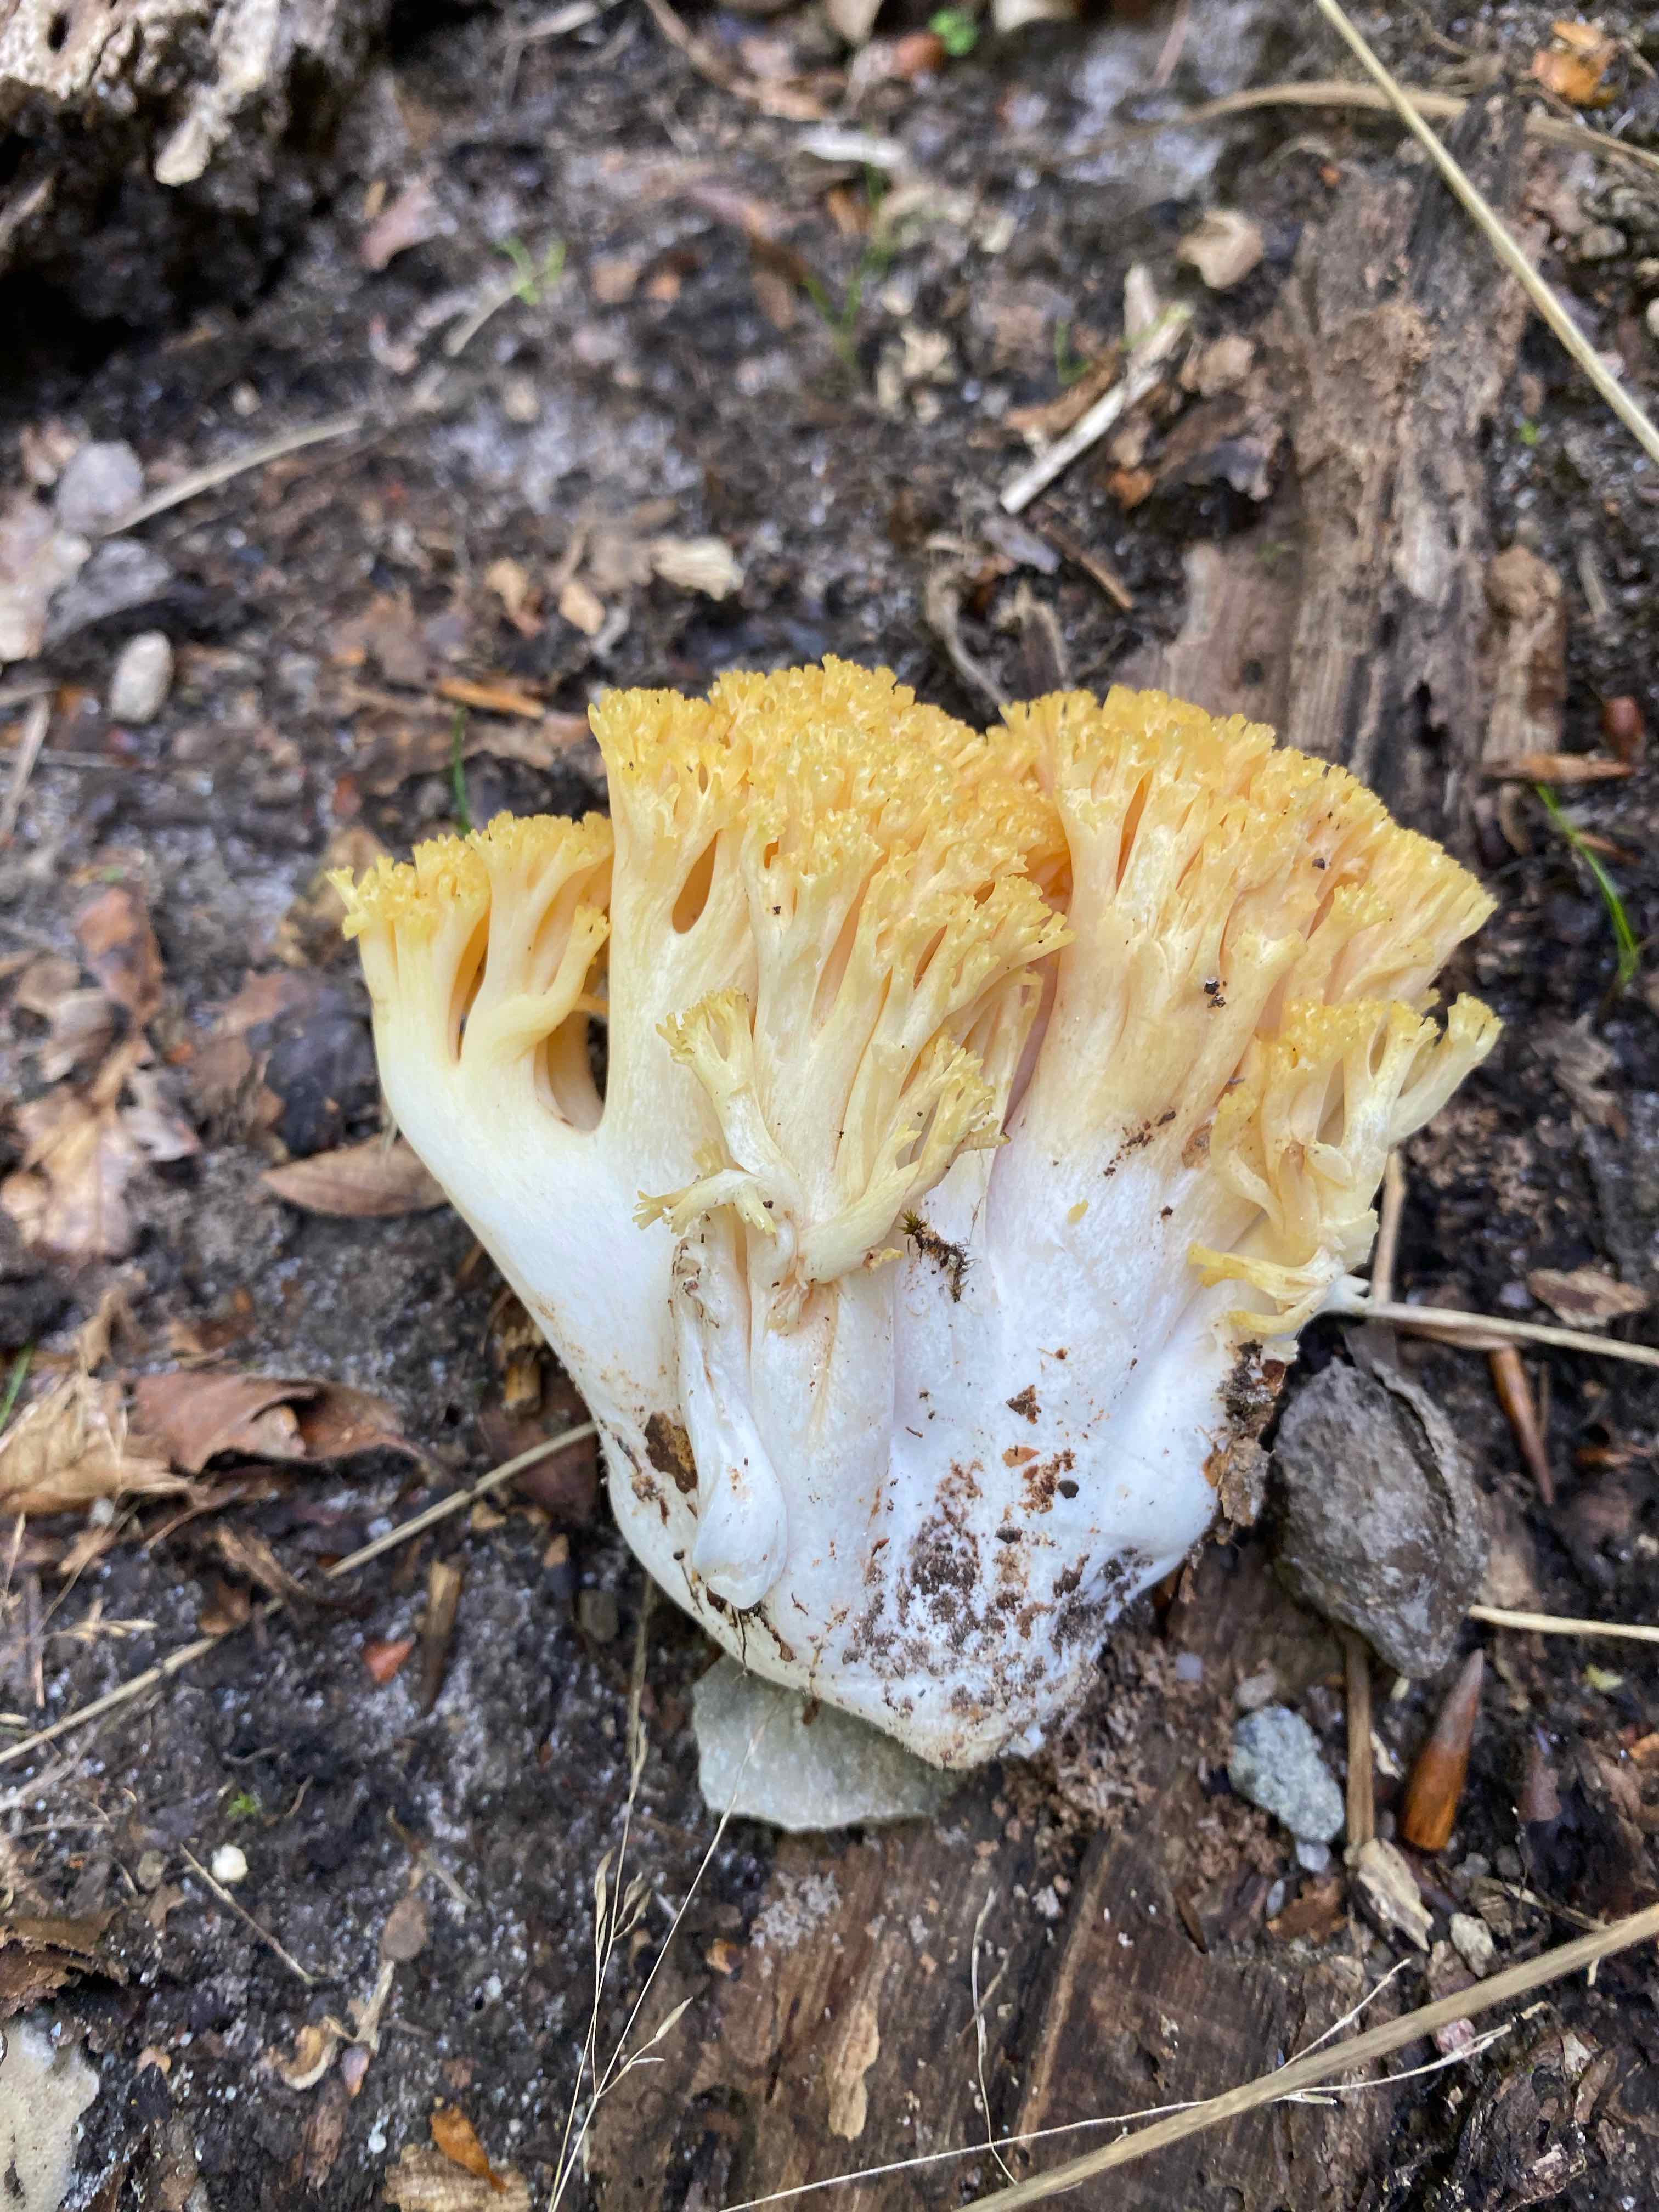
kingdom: Fungi
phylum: Basidiomycota
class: Agaricomycetes
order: Gomphales
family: Gomphaceae
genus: Ramaria
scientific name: Ramaria
